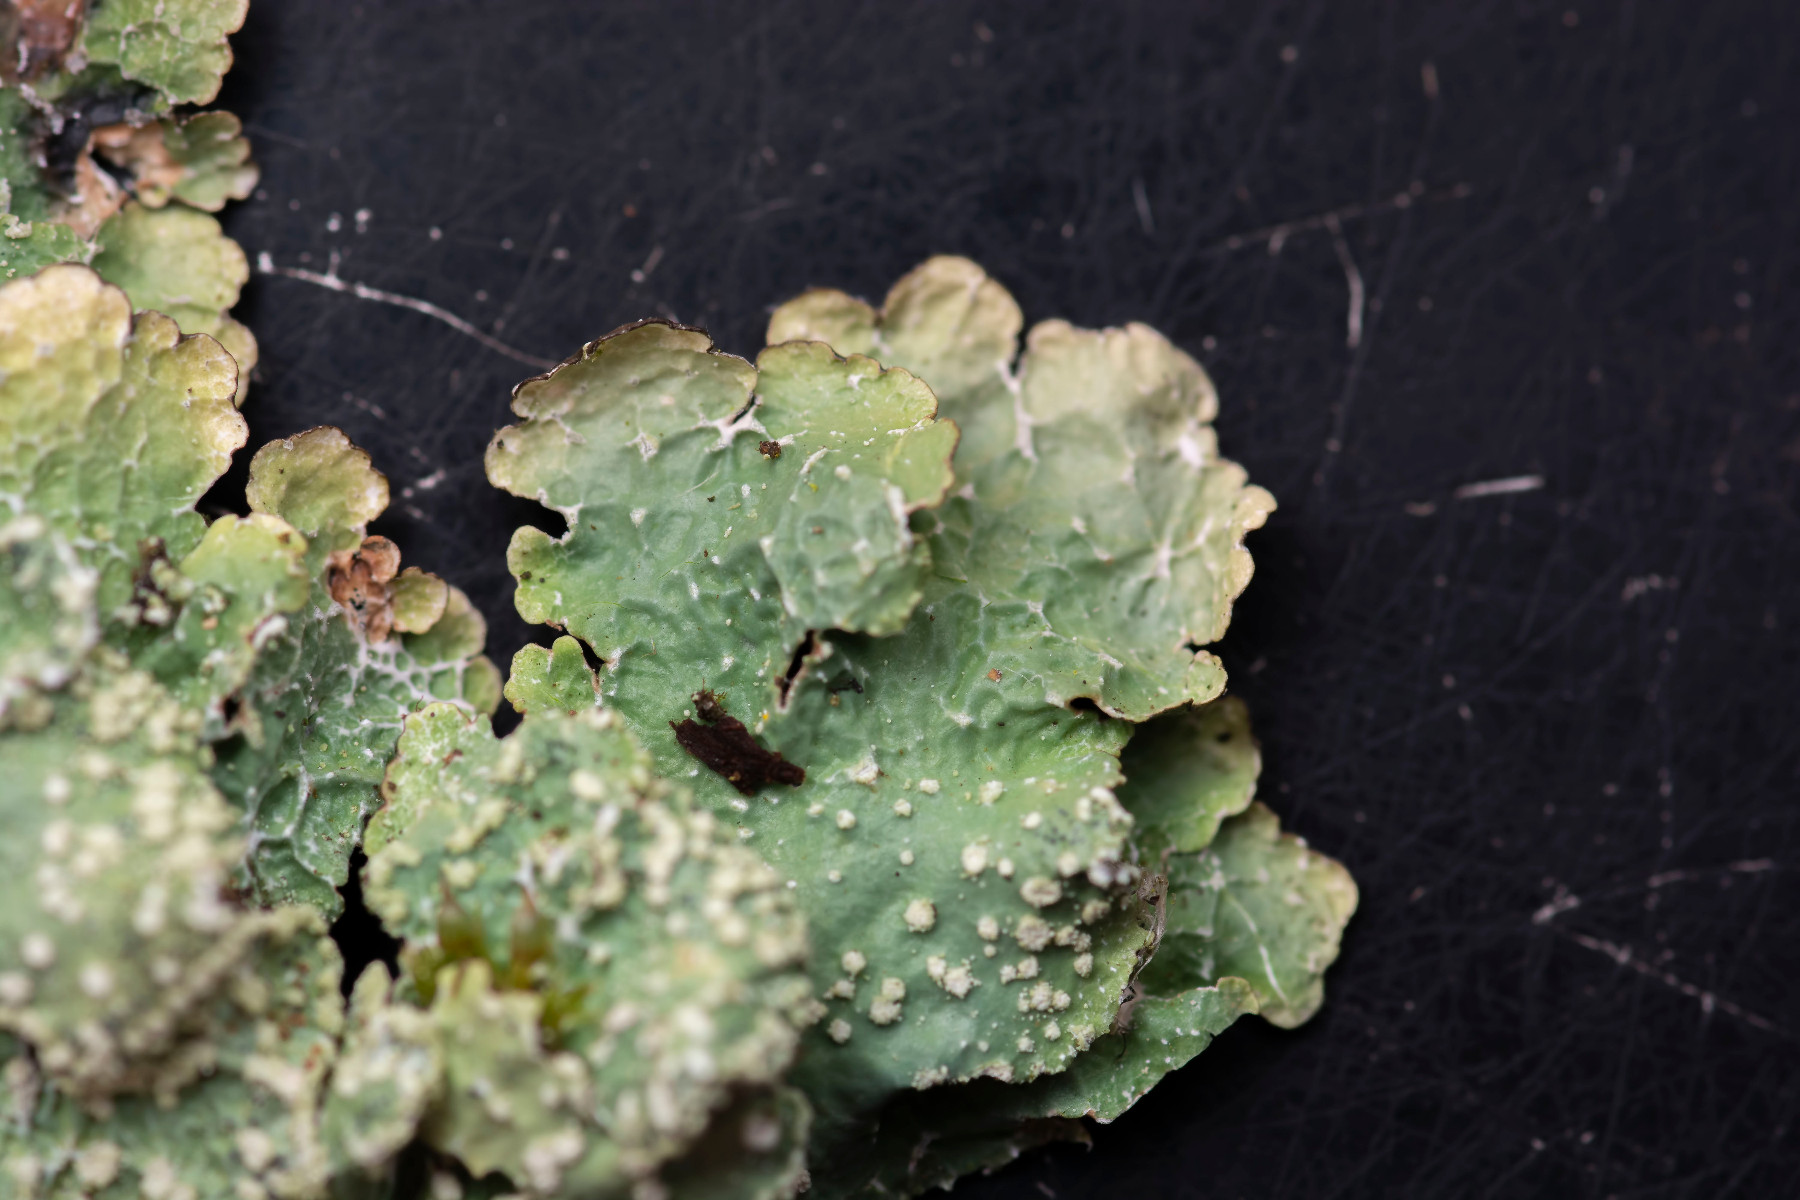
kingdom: Fungi
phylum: Ascomycota
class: Lecanoromycetes
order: Lecanorales
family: Parmeliaceae
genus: Punctelia
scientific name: Punctelia subrudecta
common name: punkt-skållav
